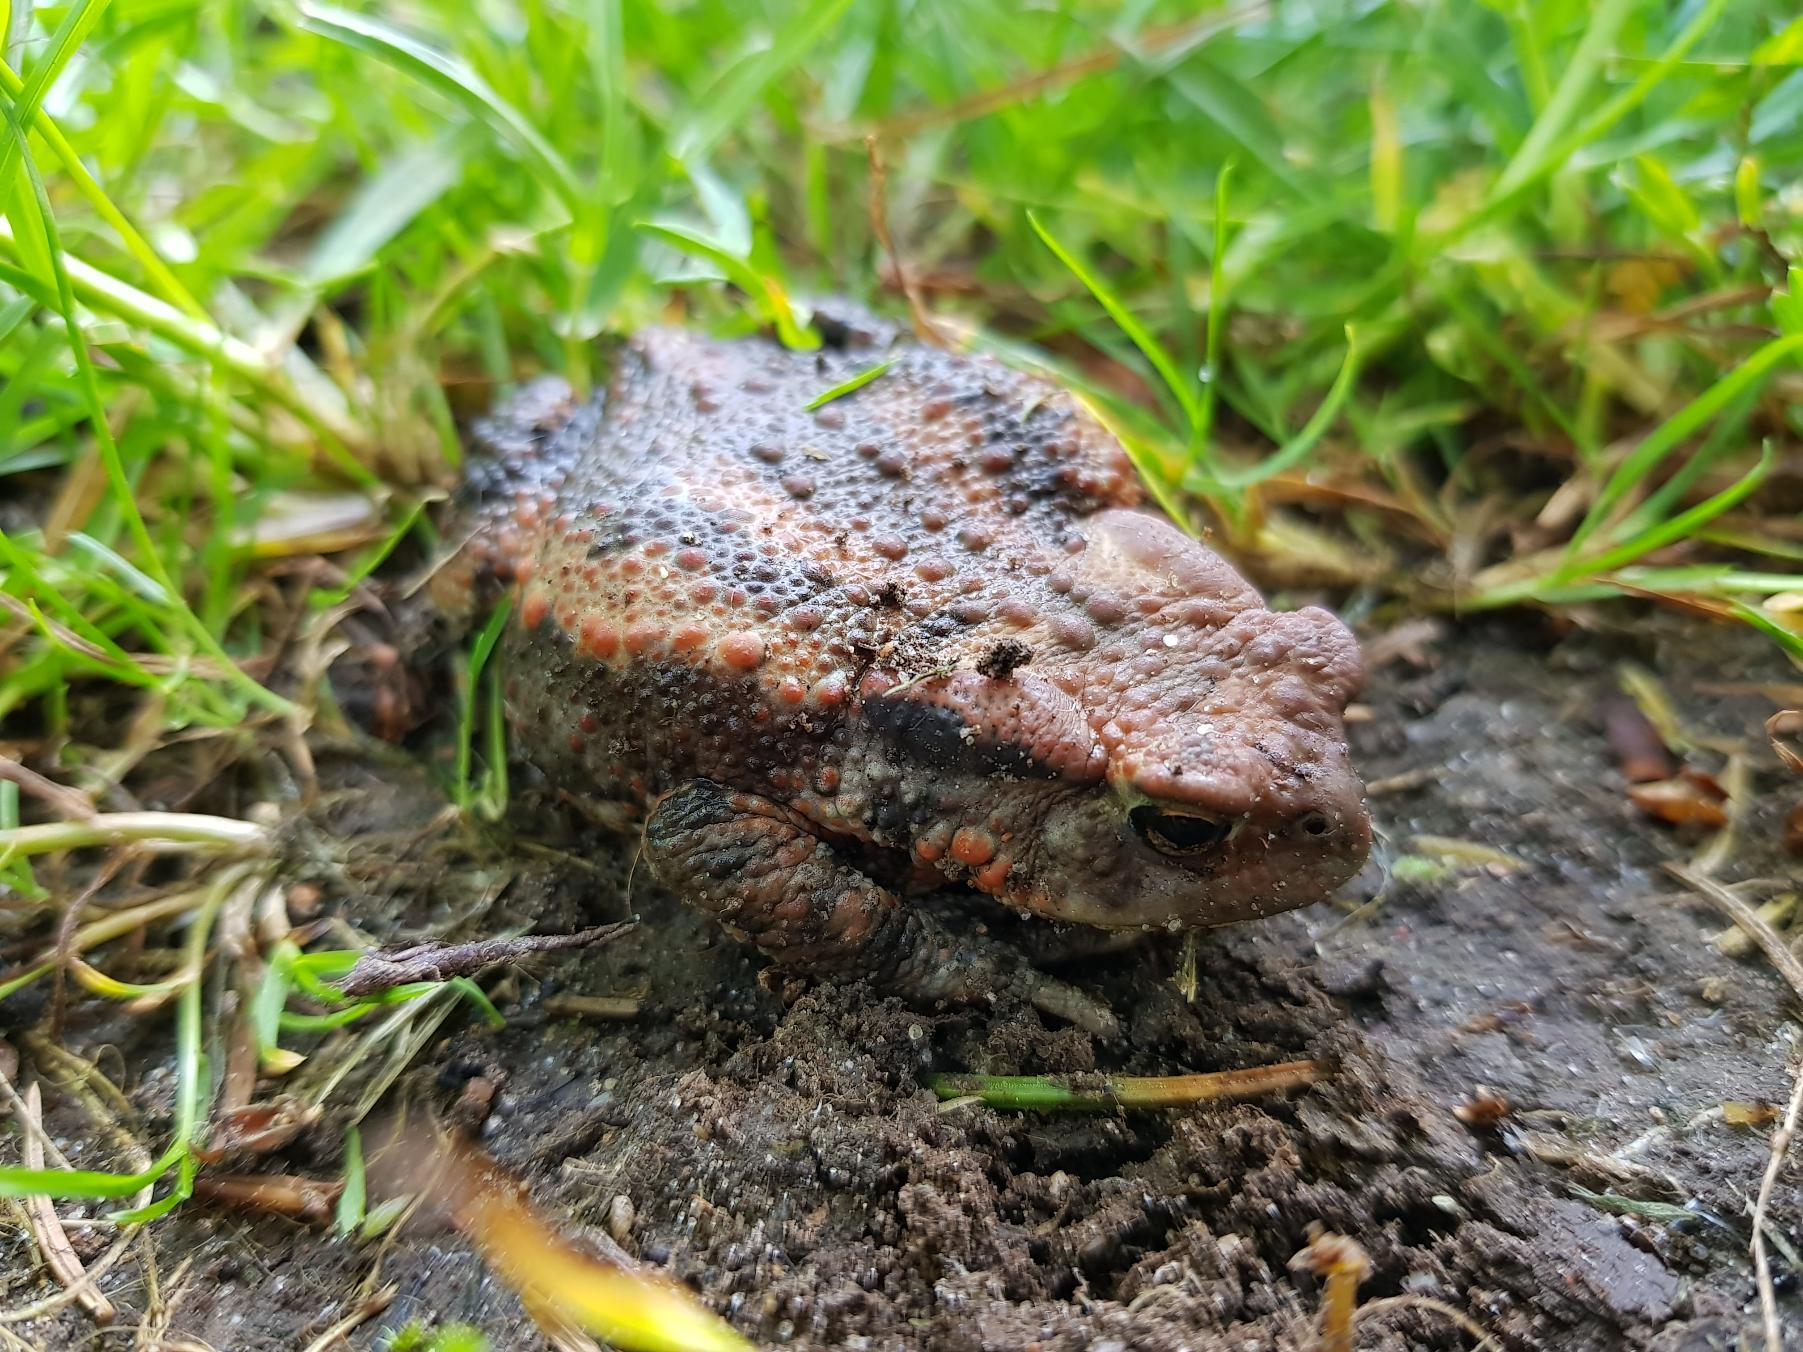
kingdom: Animalia
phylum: Chordata
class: Amphibia
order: Anura
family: Bufonidae
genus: Bufo
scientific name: Bufo bufo
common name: Skrubtudse
